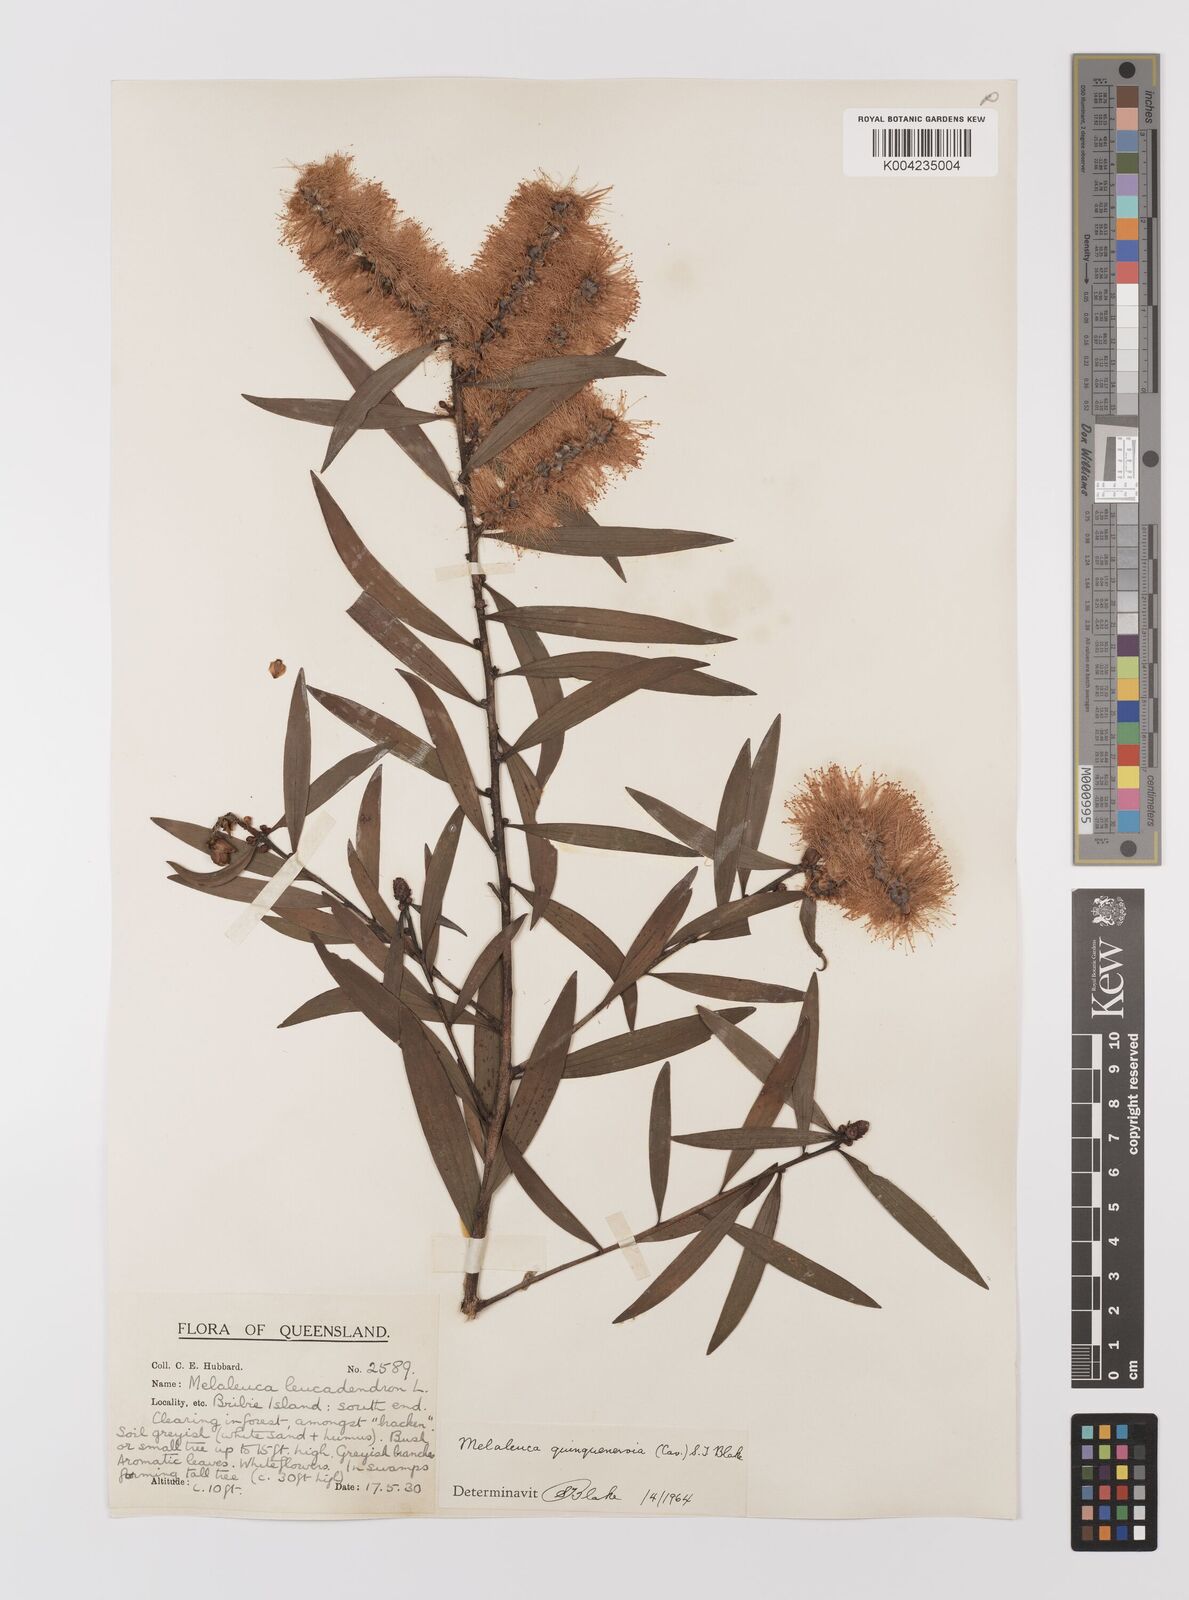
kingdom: Plantae
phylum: Tracheophyta
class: Magnoliopsida
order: Myrtales
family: Myrtaceae
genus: Melaleuca
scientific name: Melaleuca quinquenervia
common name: Punktree
